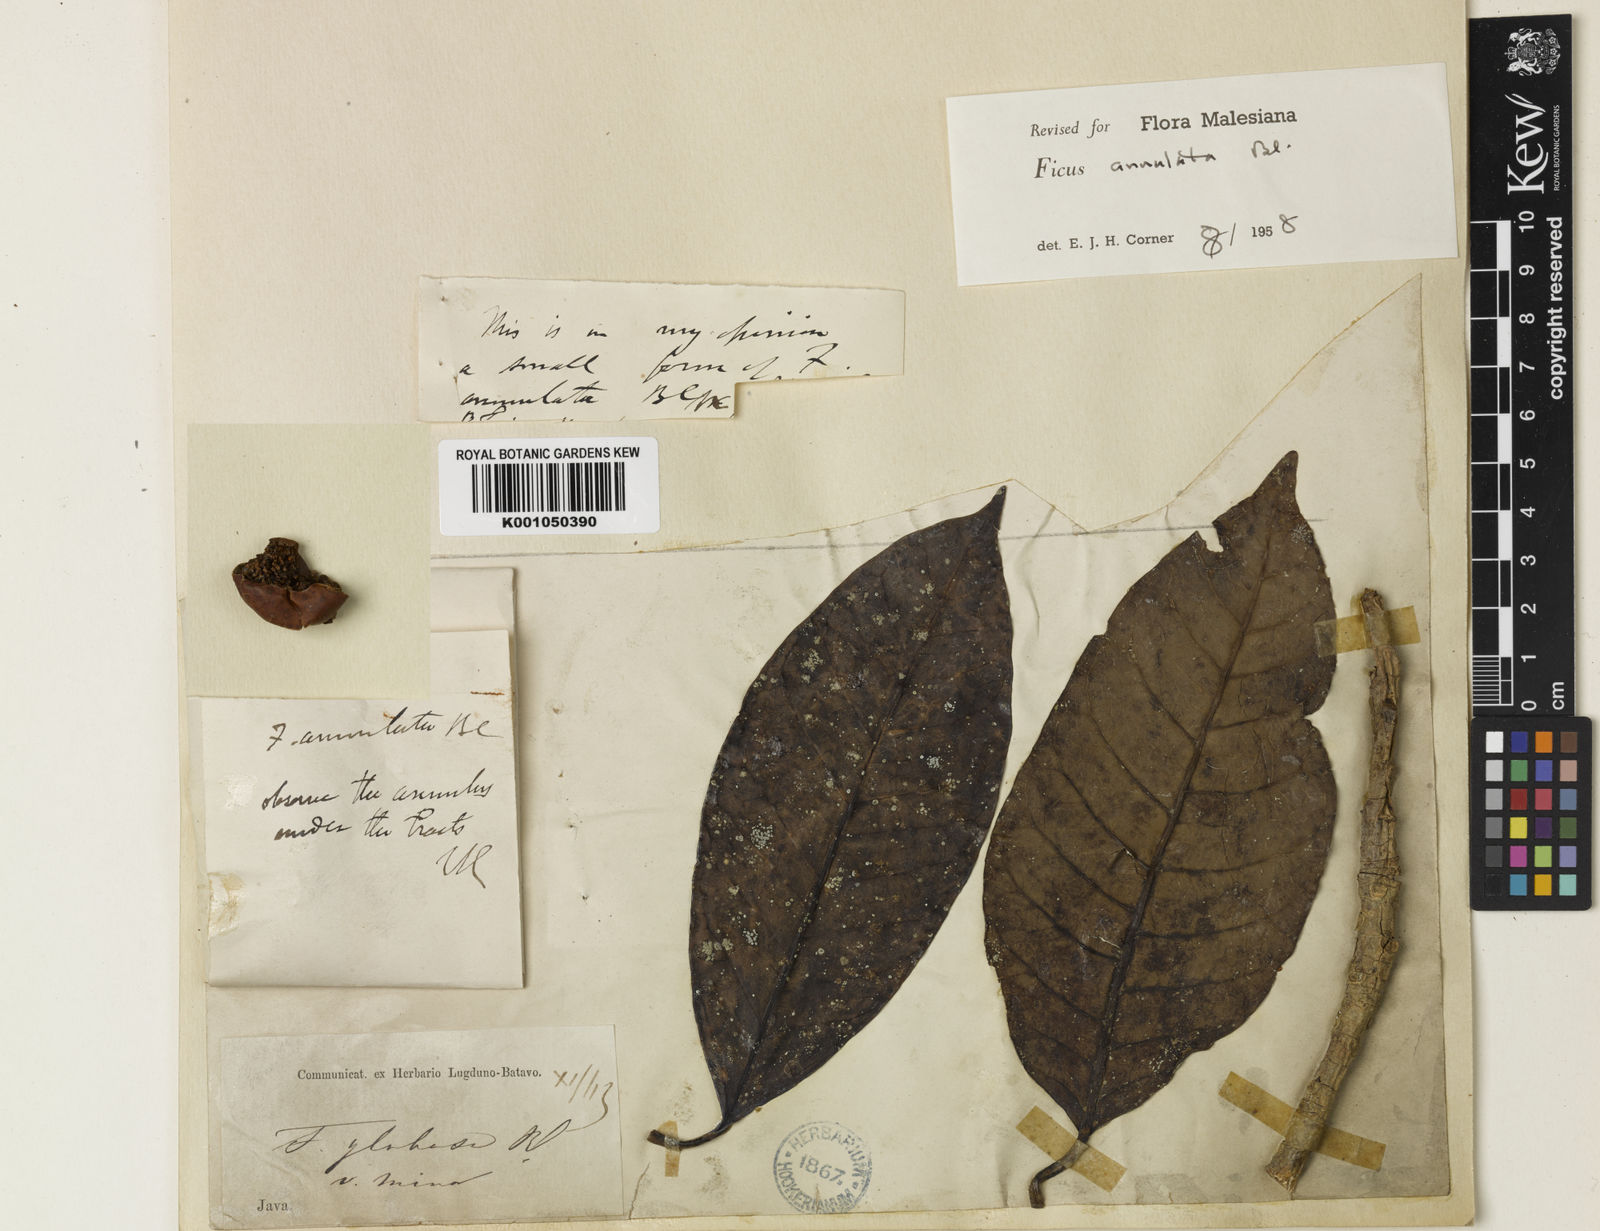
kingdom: Plantae
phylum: Tracheophyta
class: Magnoliopsida
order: Rosales
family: Moraceae
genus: Ficus
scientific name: Ficus annulata
